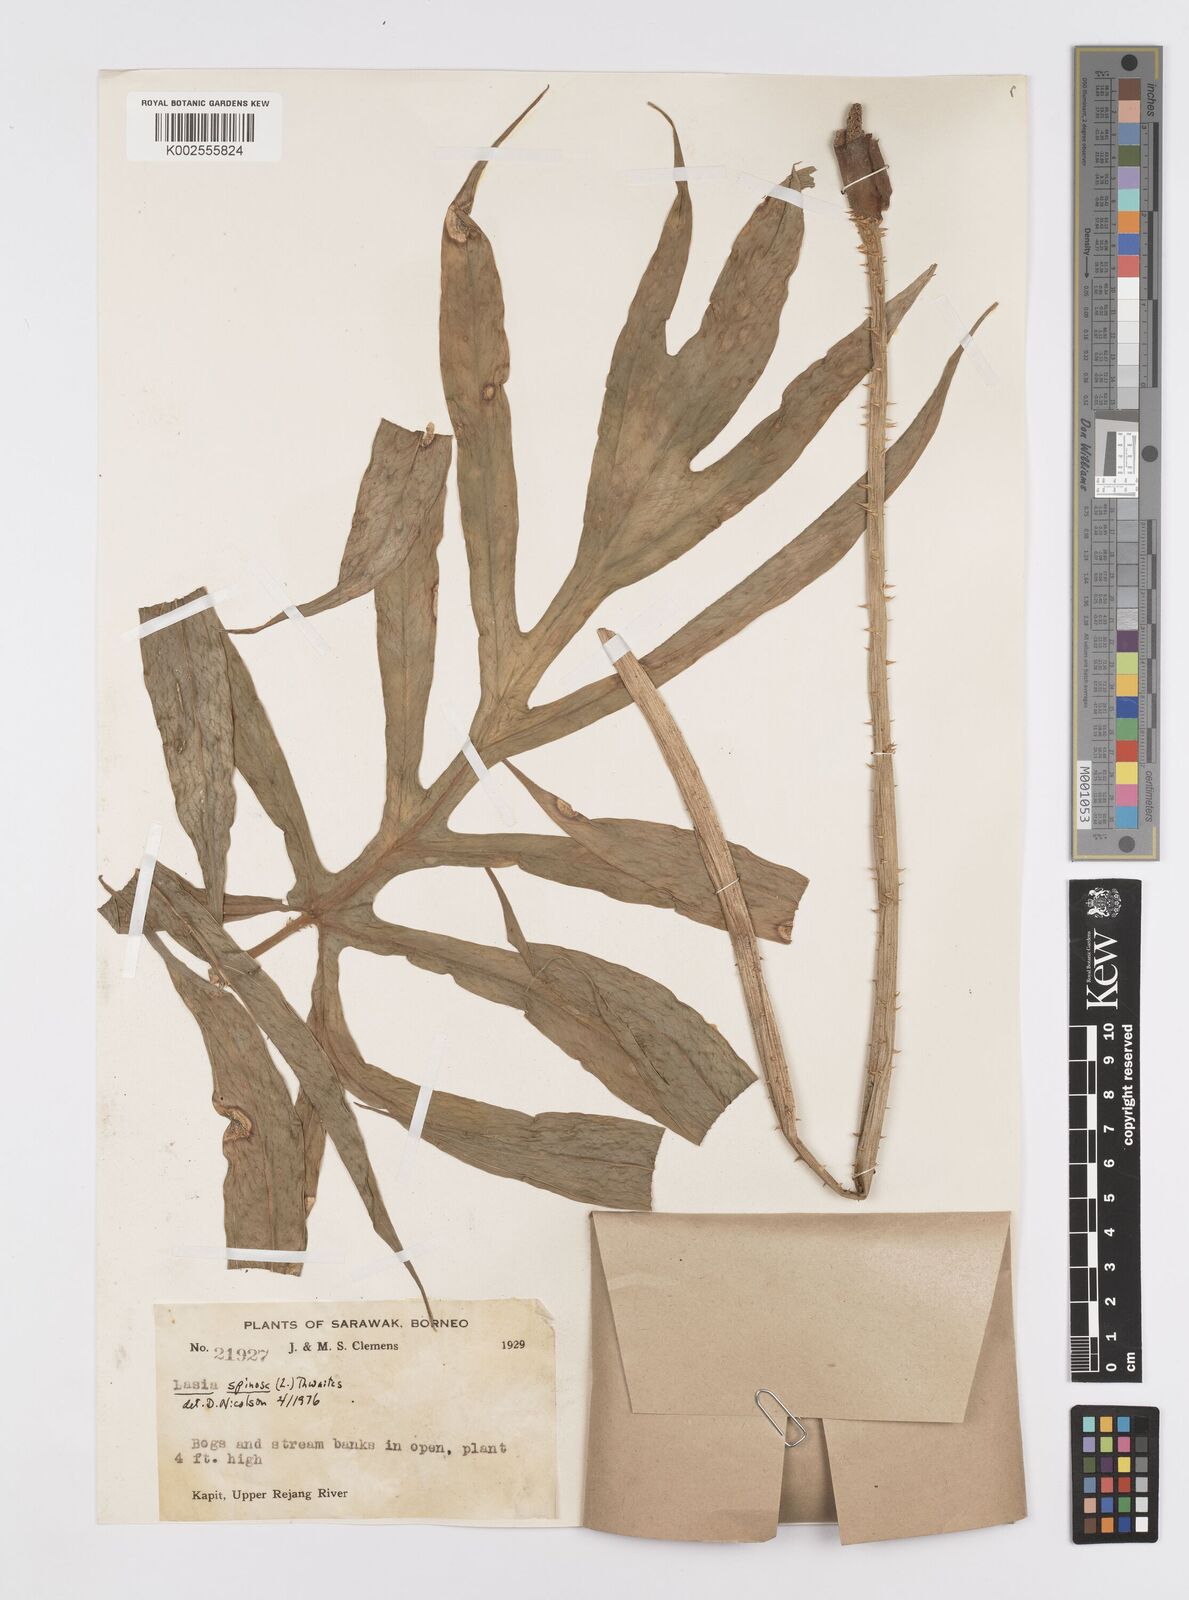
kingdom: Plantae
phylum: Tracheophyta
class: Liliopsida
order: Alismatales
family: Araceae
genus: Lasia
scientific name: Lasia spinosa
